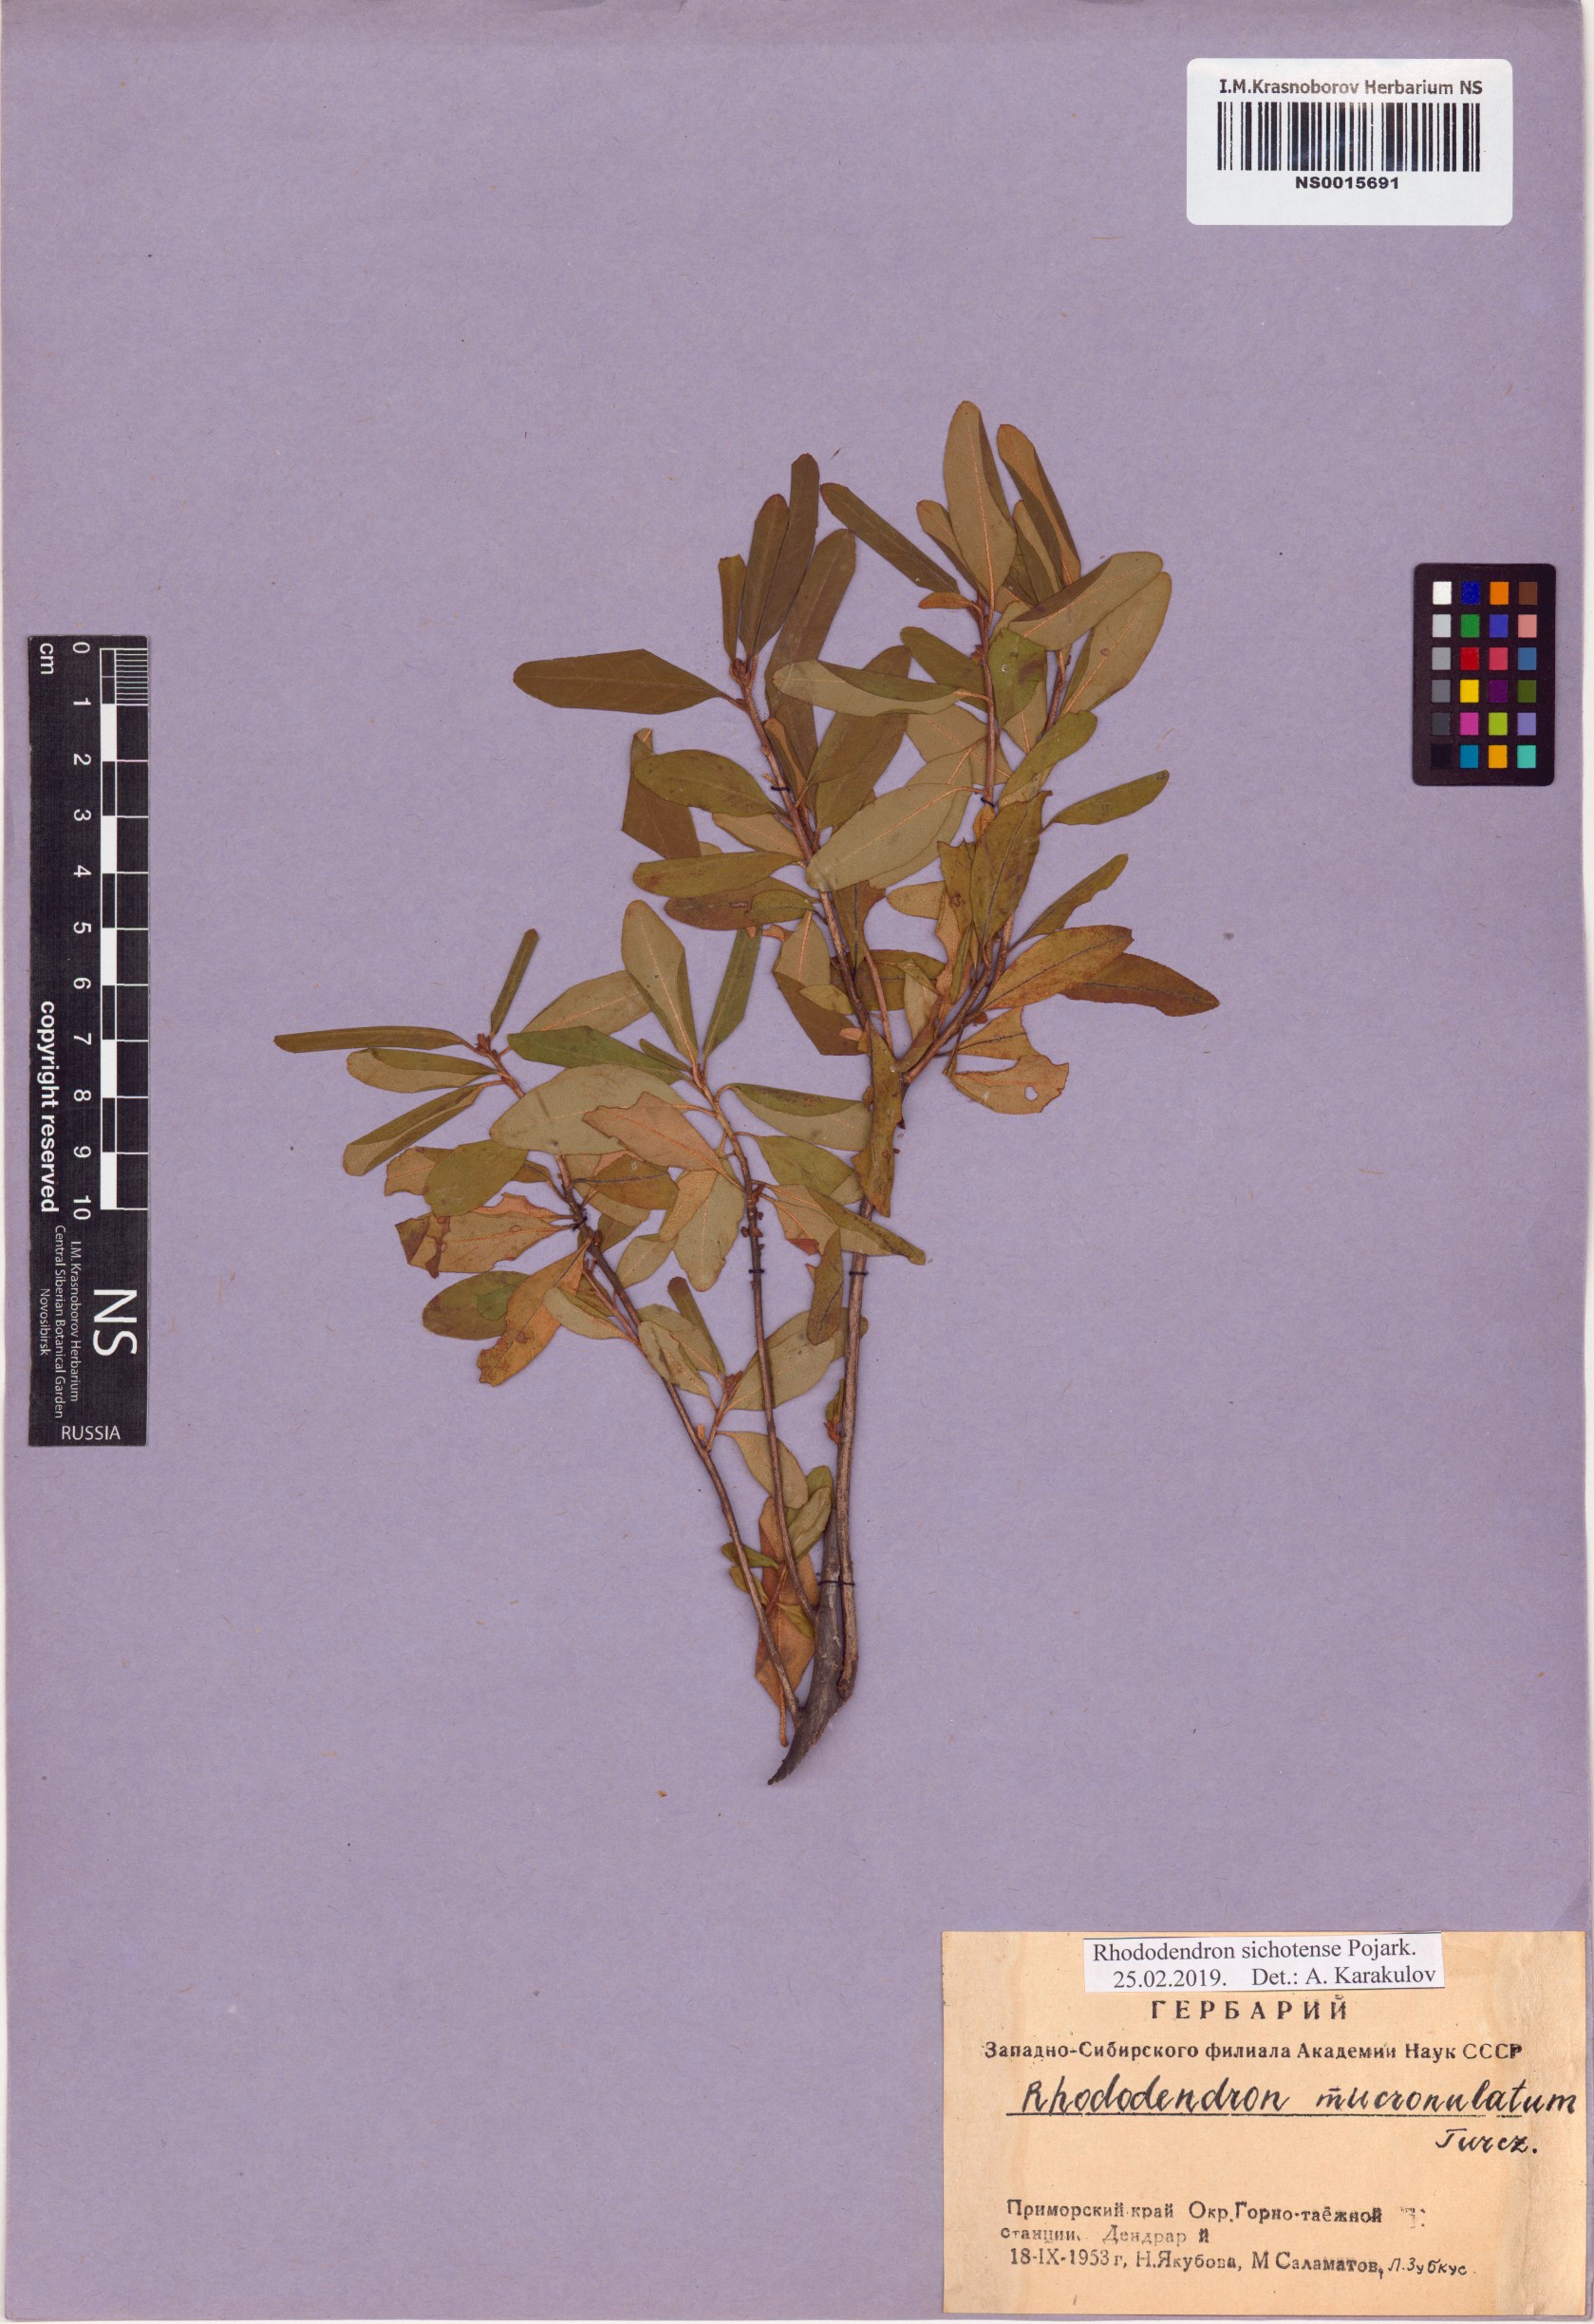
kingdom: Plantae
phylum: Tracheophyta
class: Magnoliopsida
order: Ericales
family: Ericaceae
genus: Rhododendron
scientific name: Rhododendron sichotense
